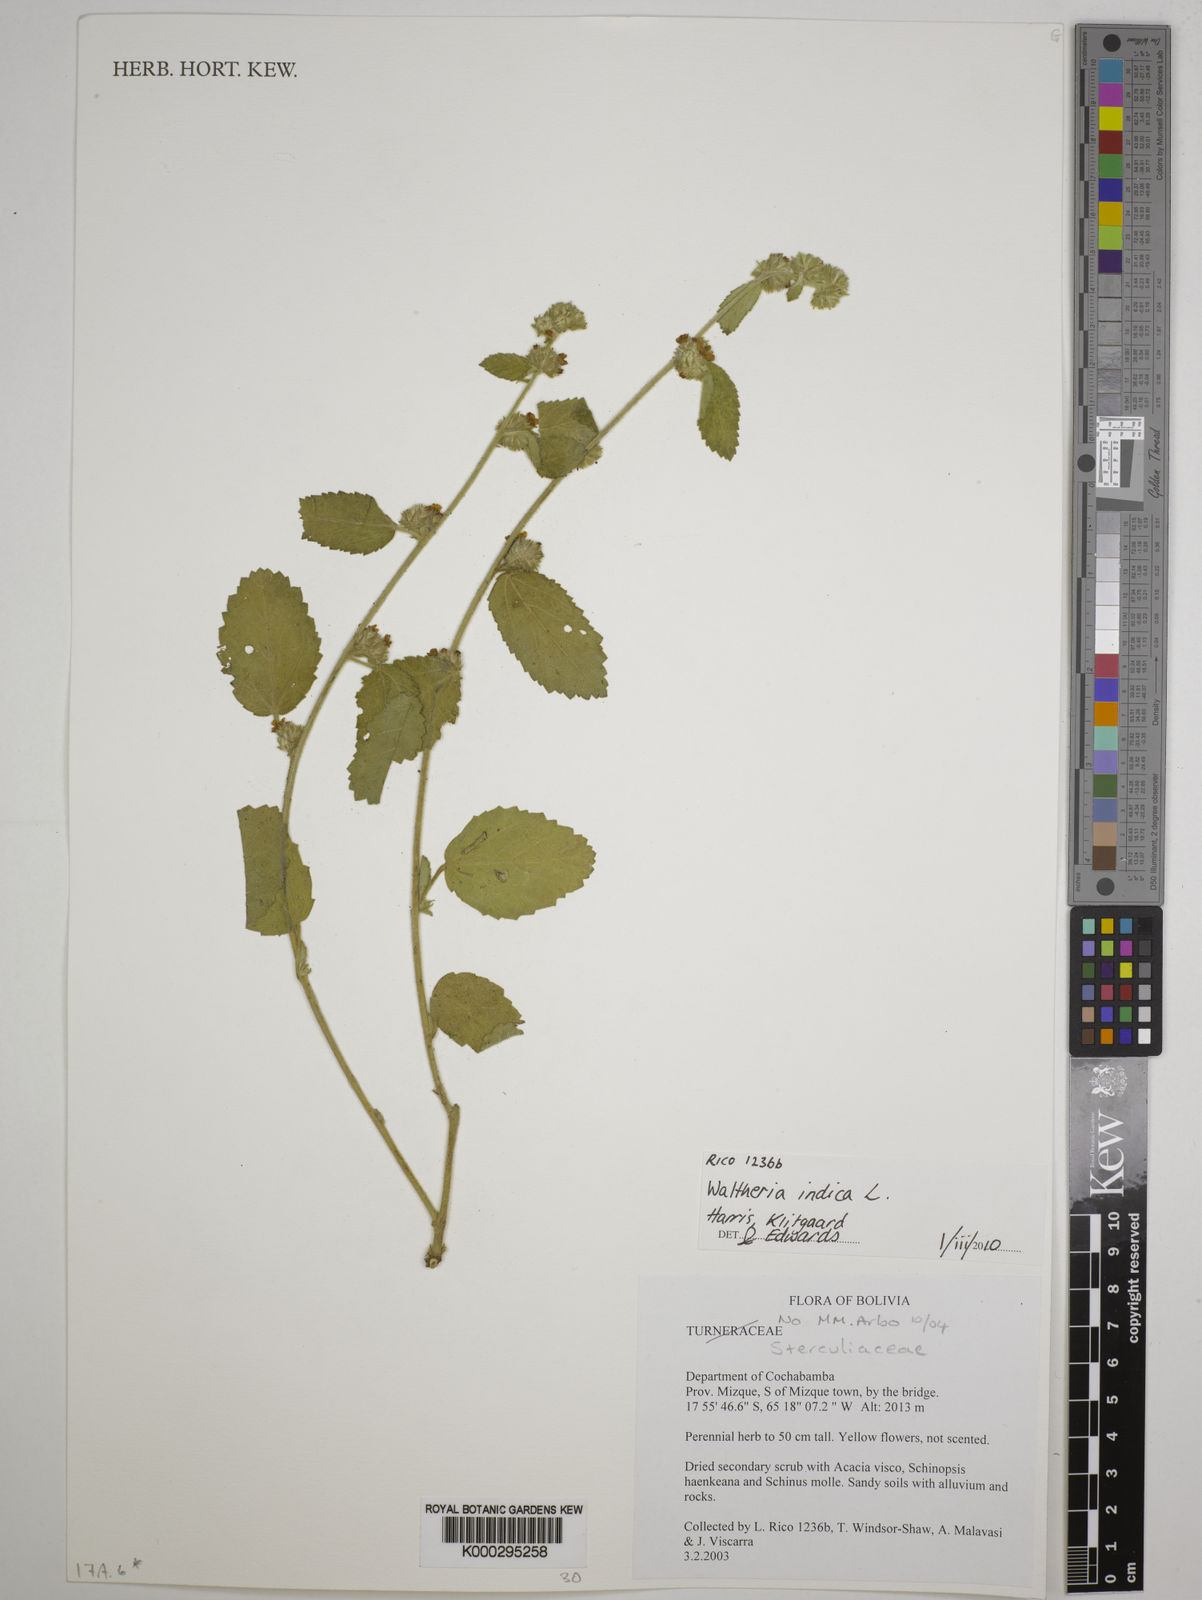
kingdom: Plantae
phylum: Tracheophyta
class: Magnoliopsida
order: Malpighiales
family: Turneraceae
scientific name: Turneraceae
